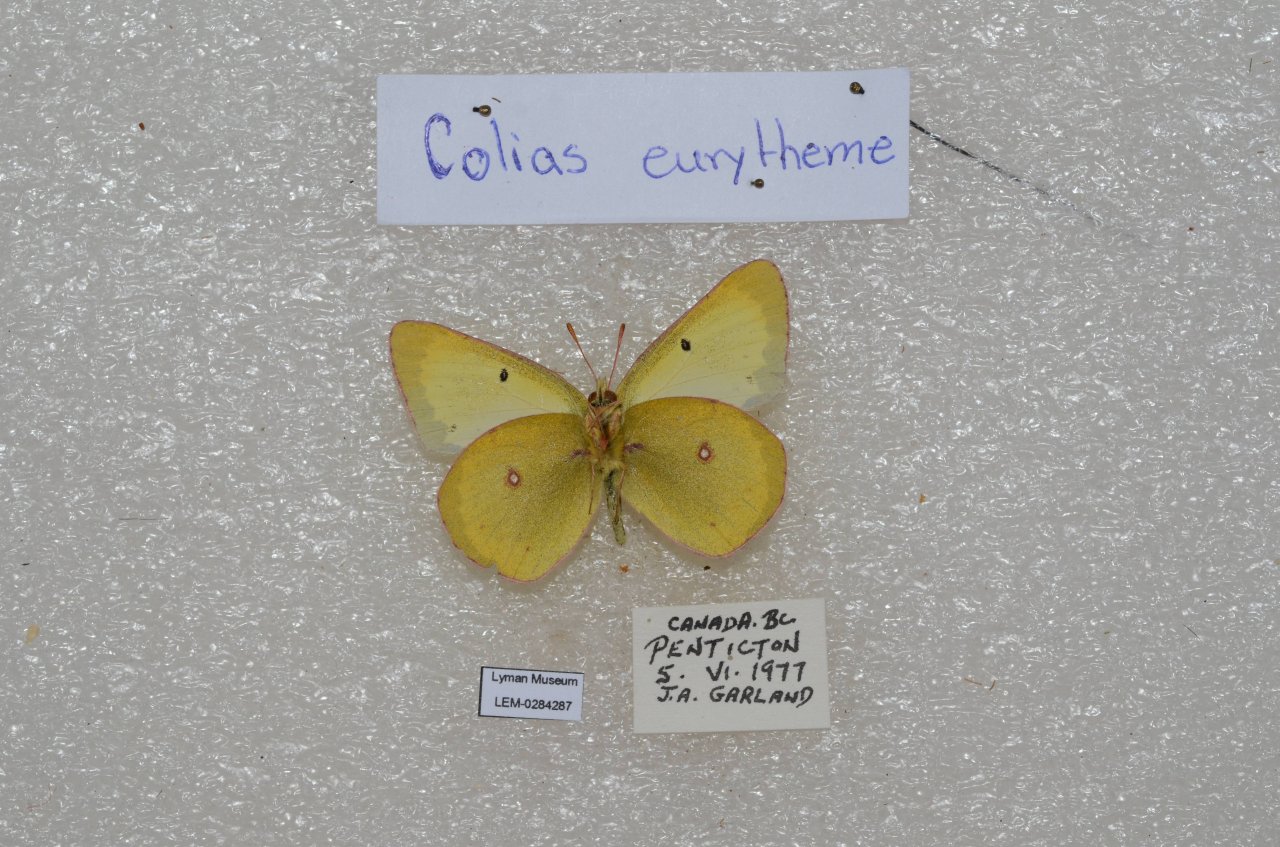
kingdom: Animalia
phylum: Arthropoda
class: Insecta
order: Lepidoptera
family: Pieridae
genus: Colias
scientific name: Colias eurytheme
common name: Orange Sulphur
